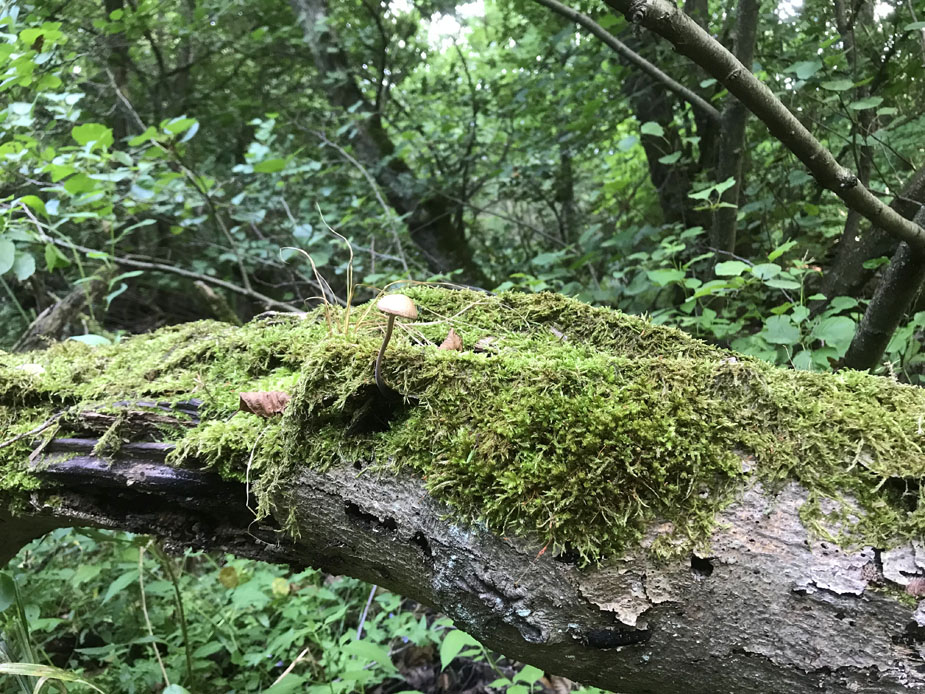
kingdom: Fungi
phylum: Basidiomycota
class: Agaricomycetes
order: Agaricales
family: Omphalotaceae
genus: Mycetinis
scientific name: Mycetinis alliaceus
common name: stor løghat
